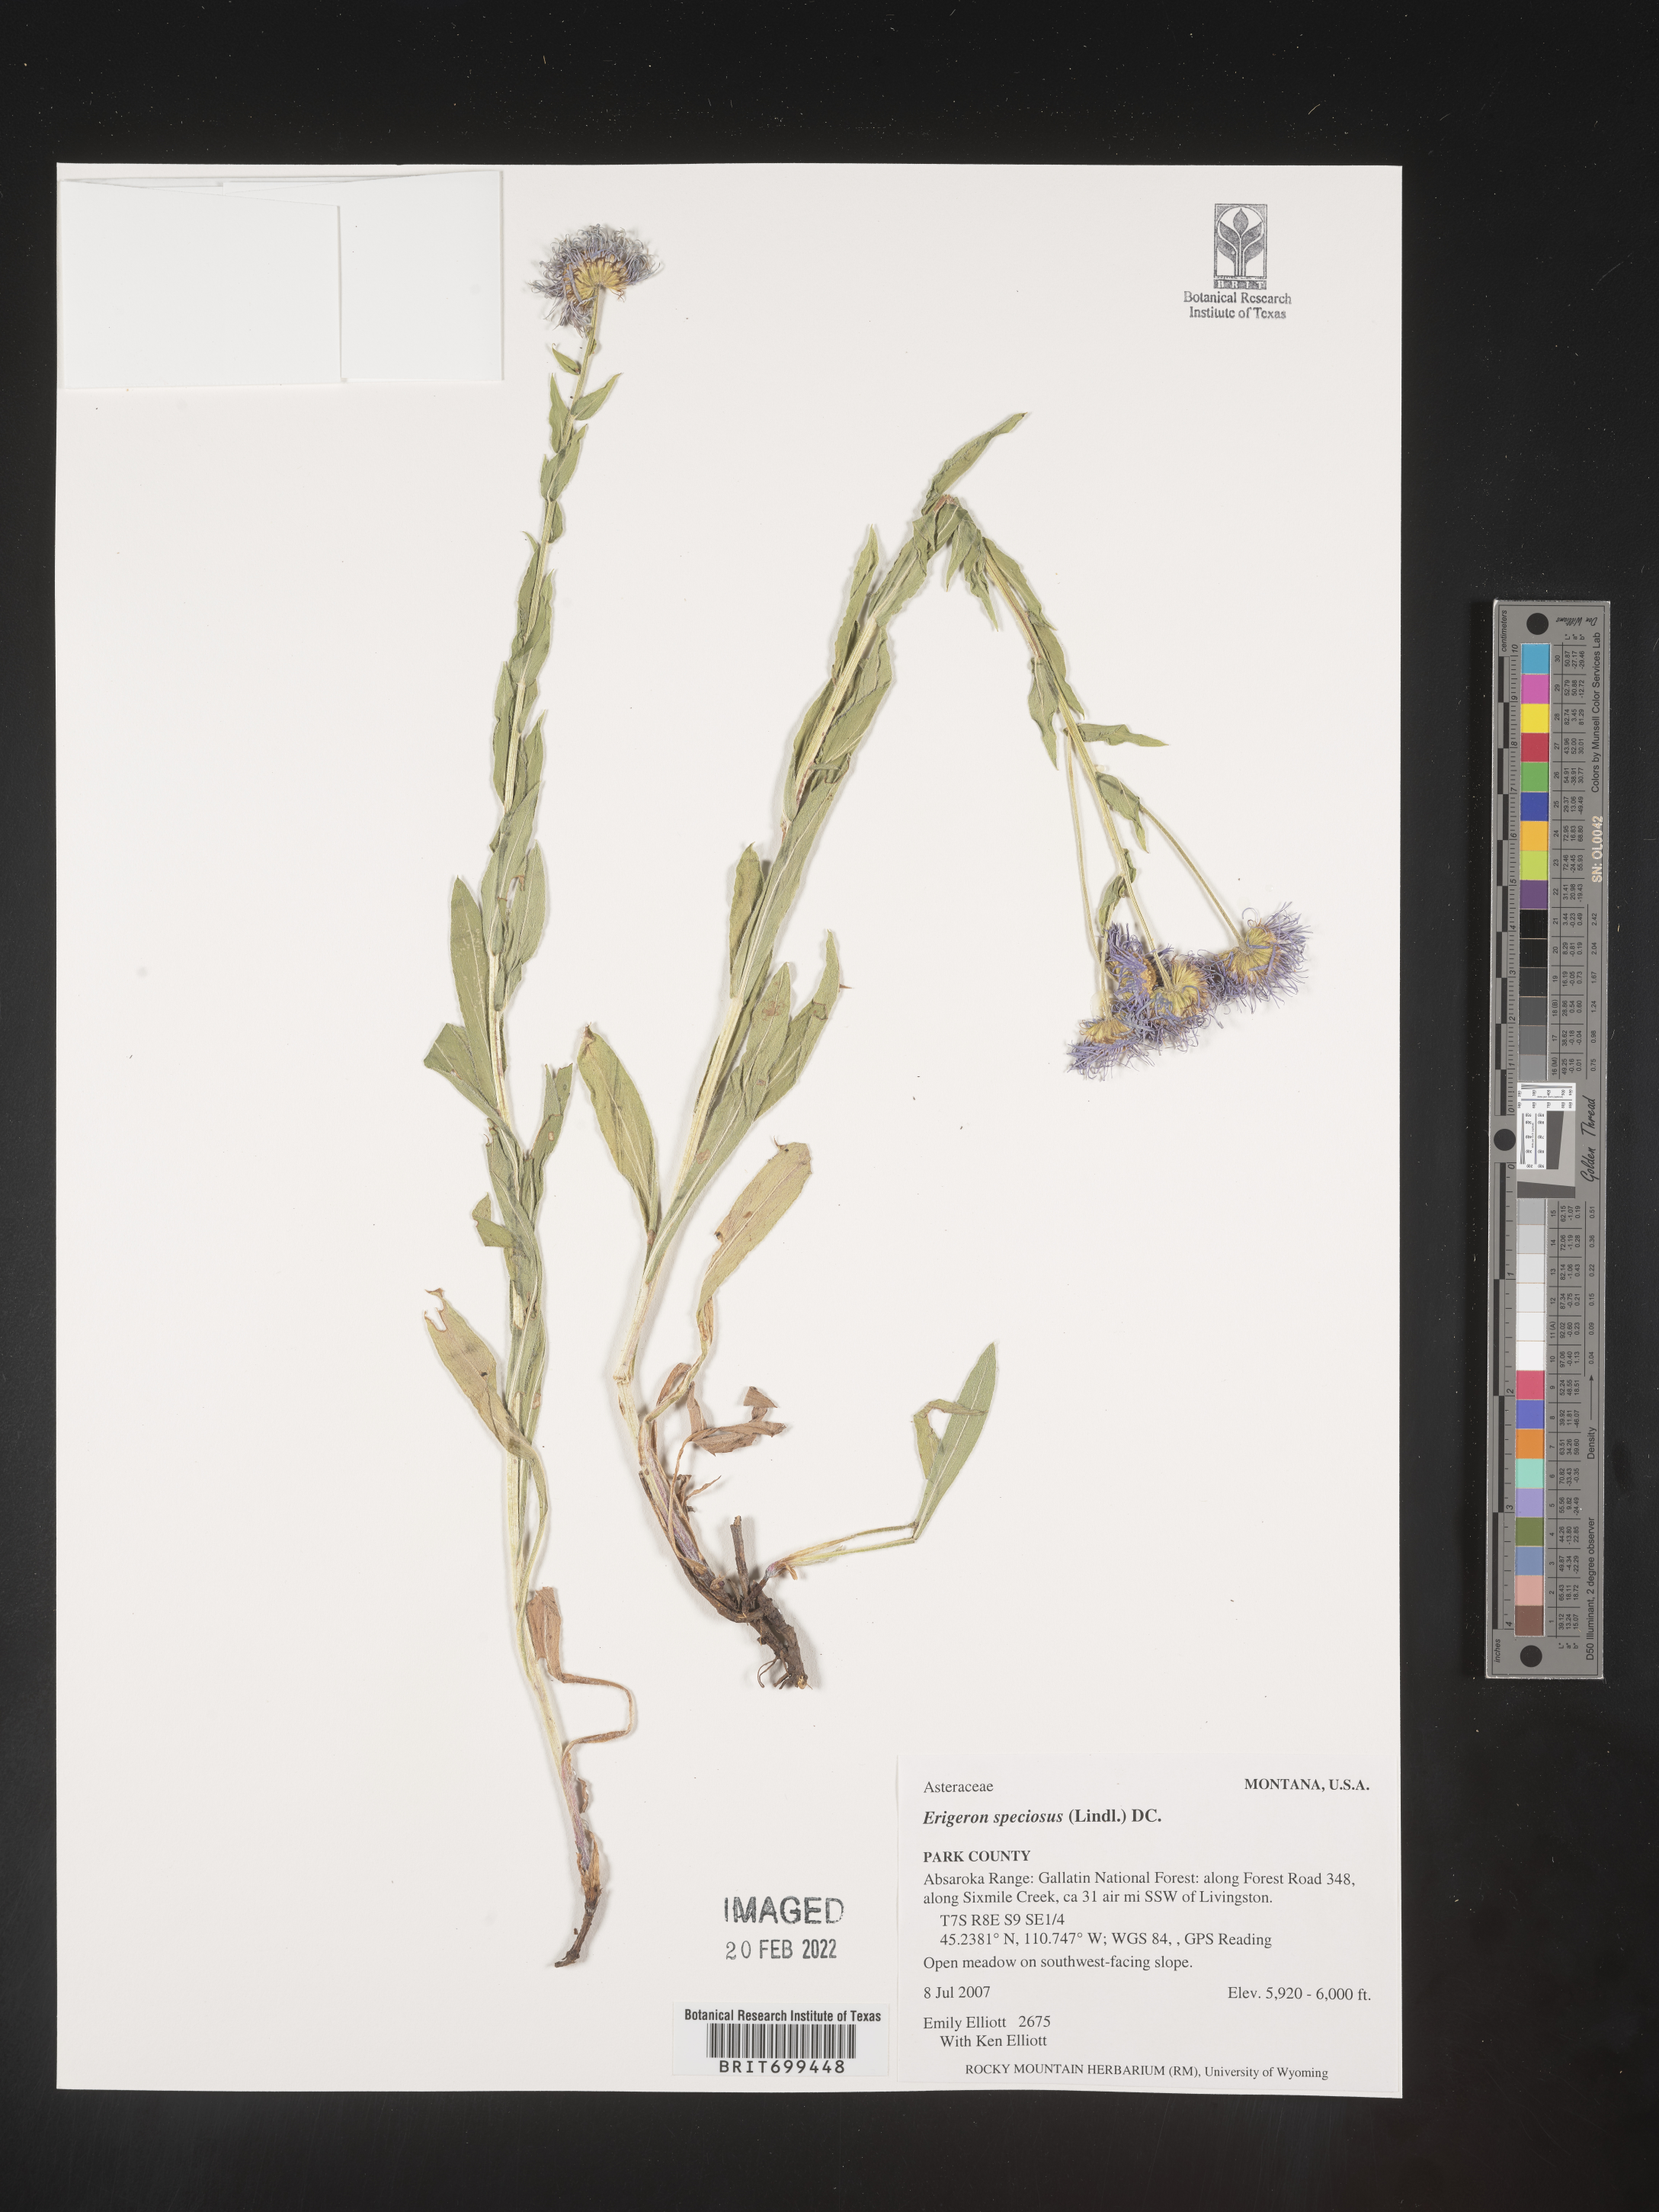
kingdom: Plantae
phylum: Tracheophyta
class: Magnoliopsida
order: Asterales
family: Asteraceae
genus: Erigeron
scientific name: Erigeron speciosus
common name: Aspen fleabane
